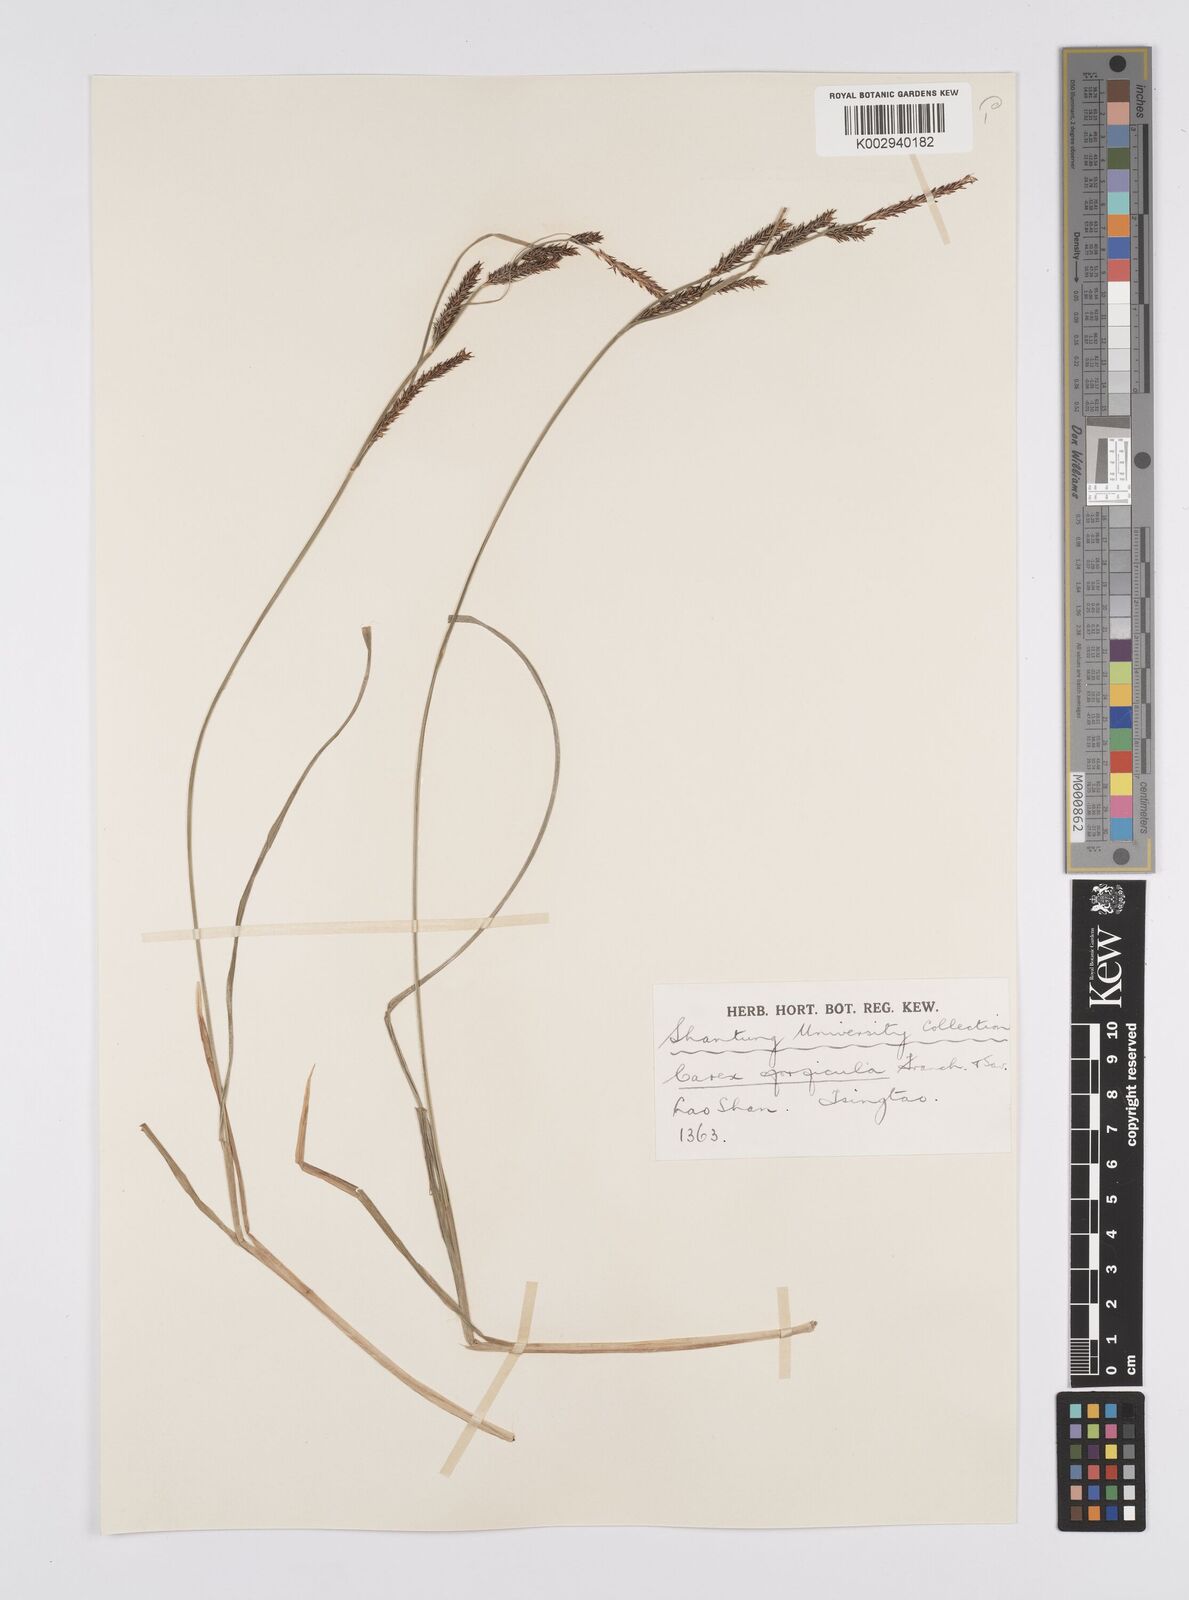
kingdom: Plantae
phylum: Tracheophyta
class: Liliopsida
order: Poales
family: Cyperaceae
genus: Carex
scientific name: Carex forficula
